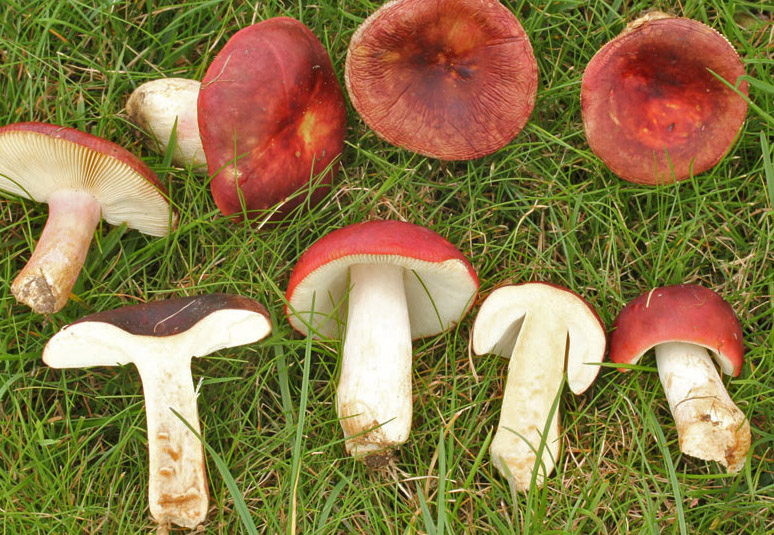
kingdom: Fungi
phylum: Basidiomycota
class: Agaricomycetes
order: Russulales
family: Russulaceae
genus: Russula
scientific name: Russula xerampelina
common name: hummer-skørhat
